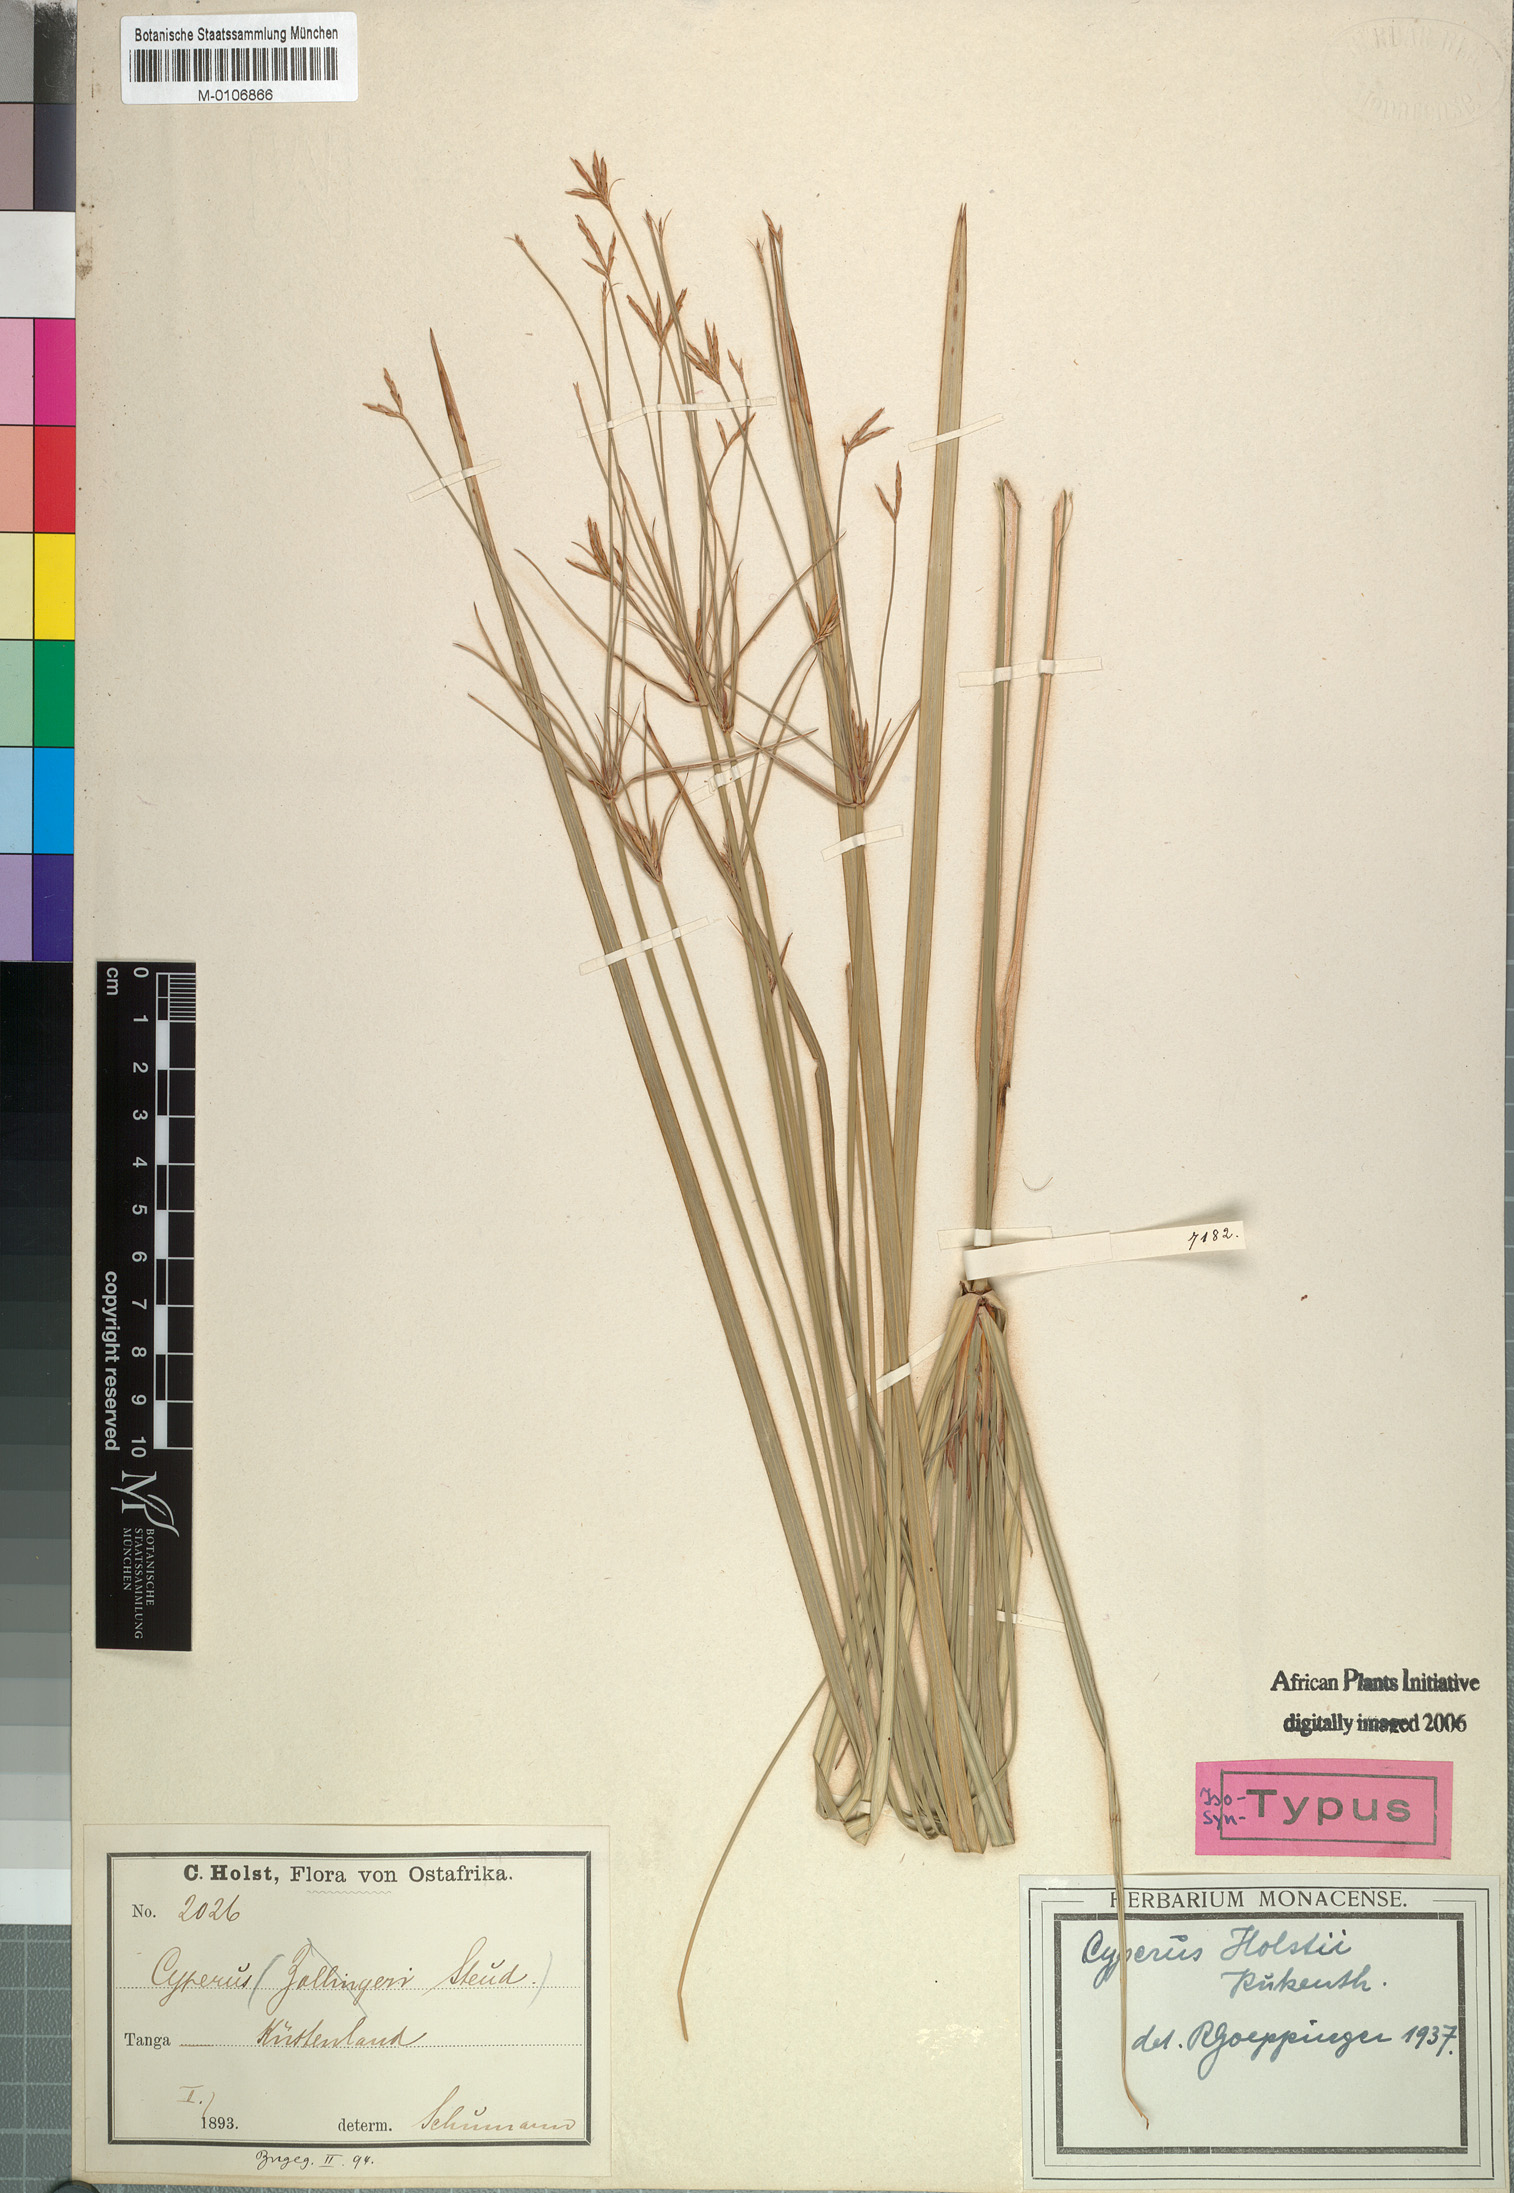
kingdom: Plantae
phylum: Tracheophyta
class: Liliopsida
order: Poales
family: Cyperaceae
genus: Cyperus
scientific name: Cyperus holstii
